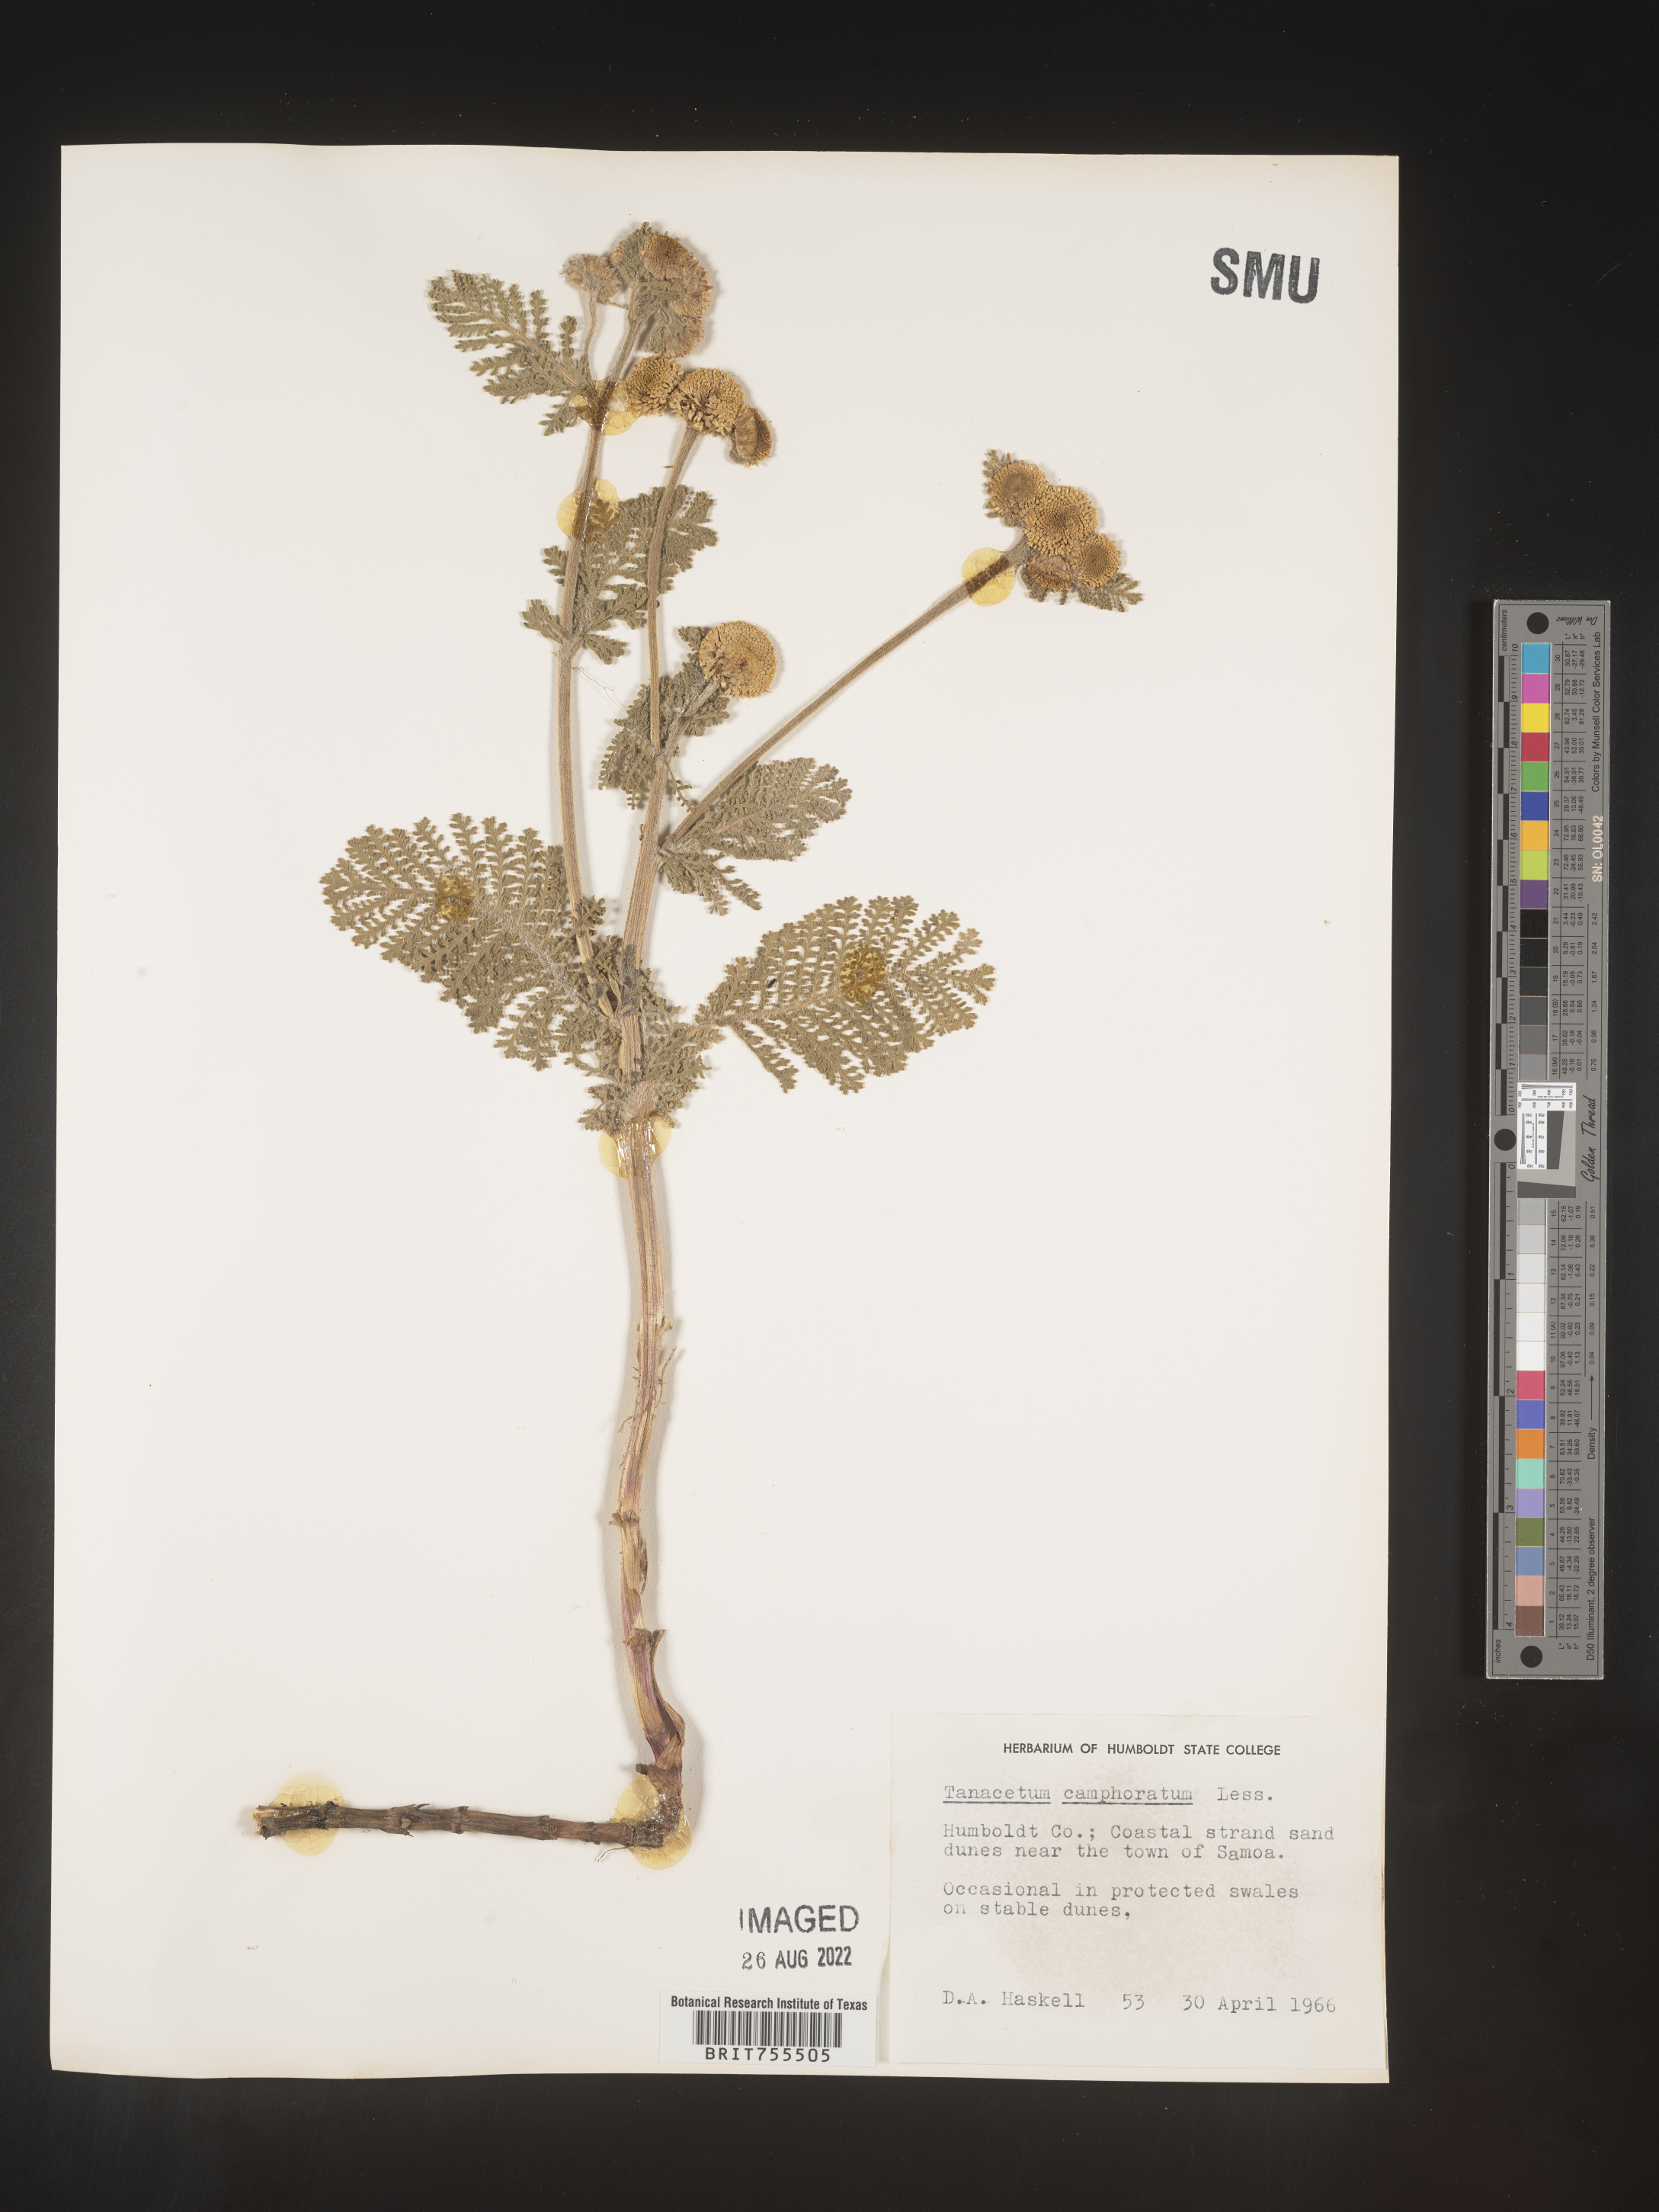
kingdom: Plantae
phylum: Tracheophyta
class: Magnoliopsida
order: Asterales
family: Asteraceae
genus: Tanacetum
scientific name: Tanacetum bipinnatum
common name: Dwarf tansy
